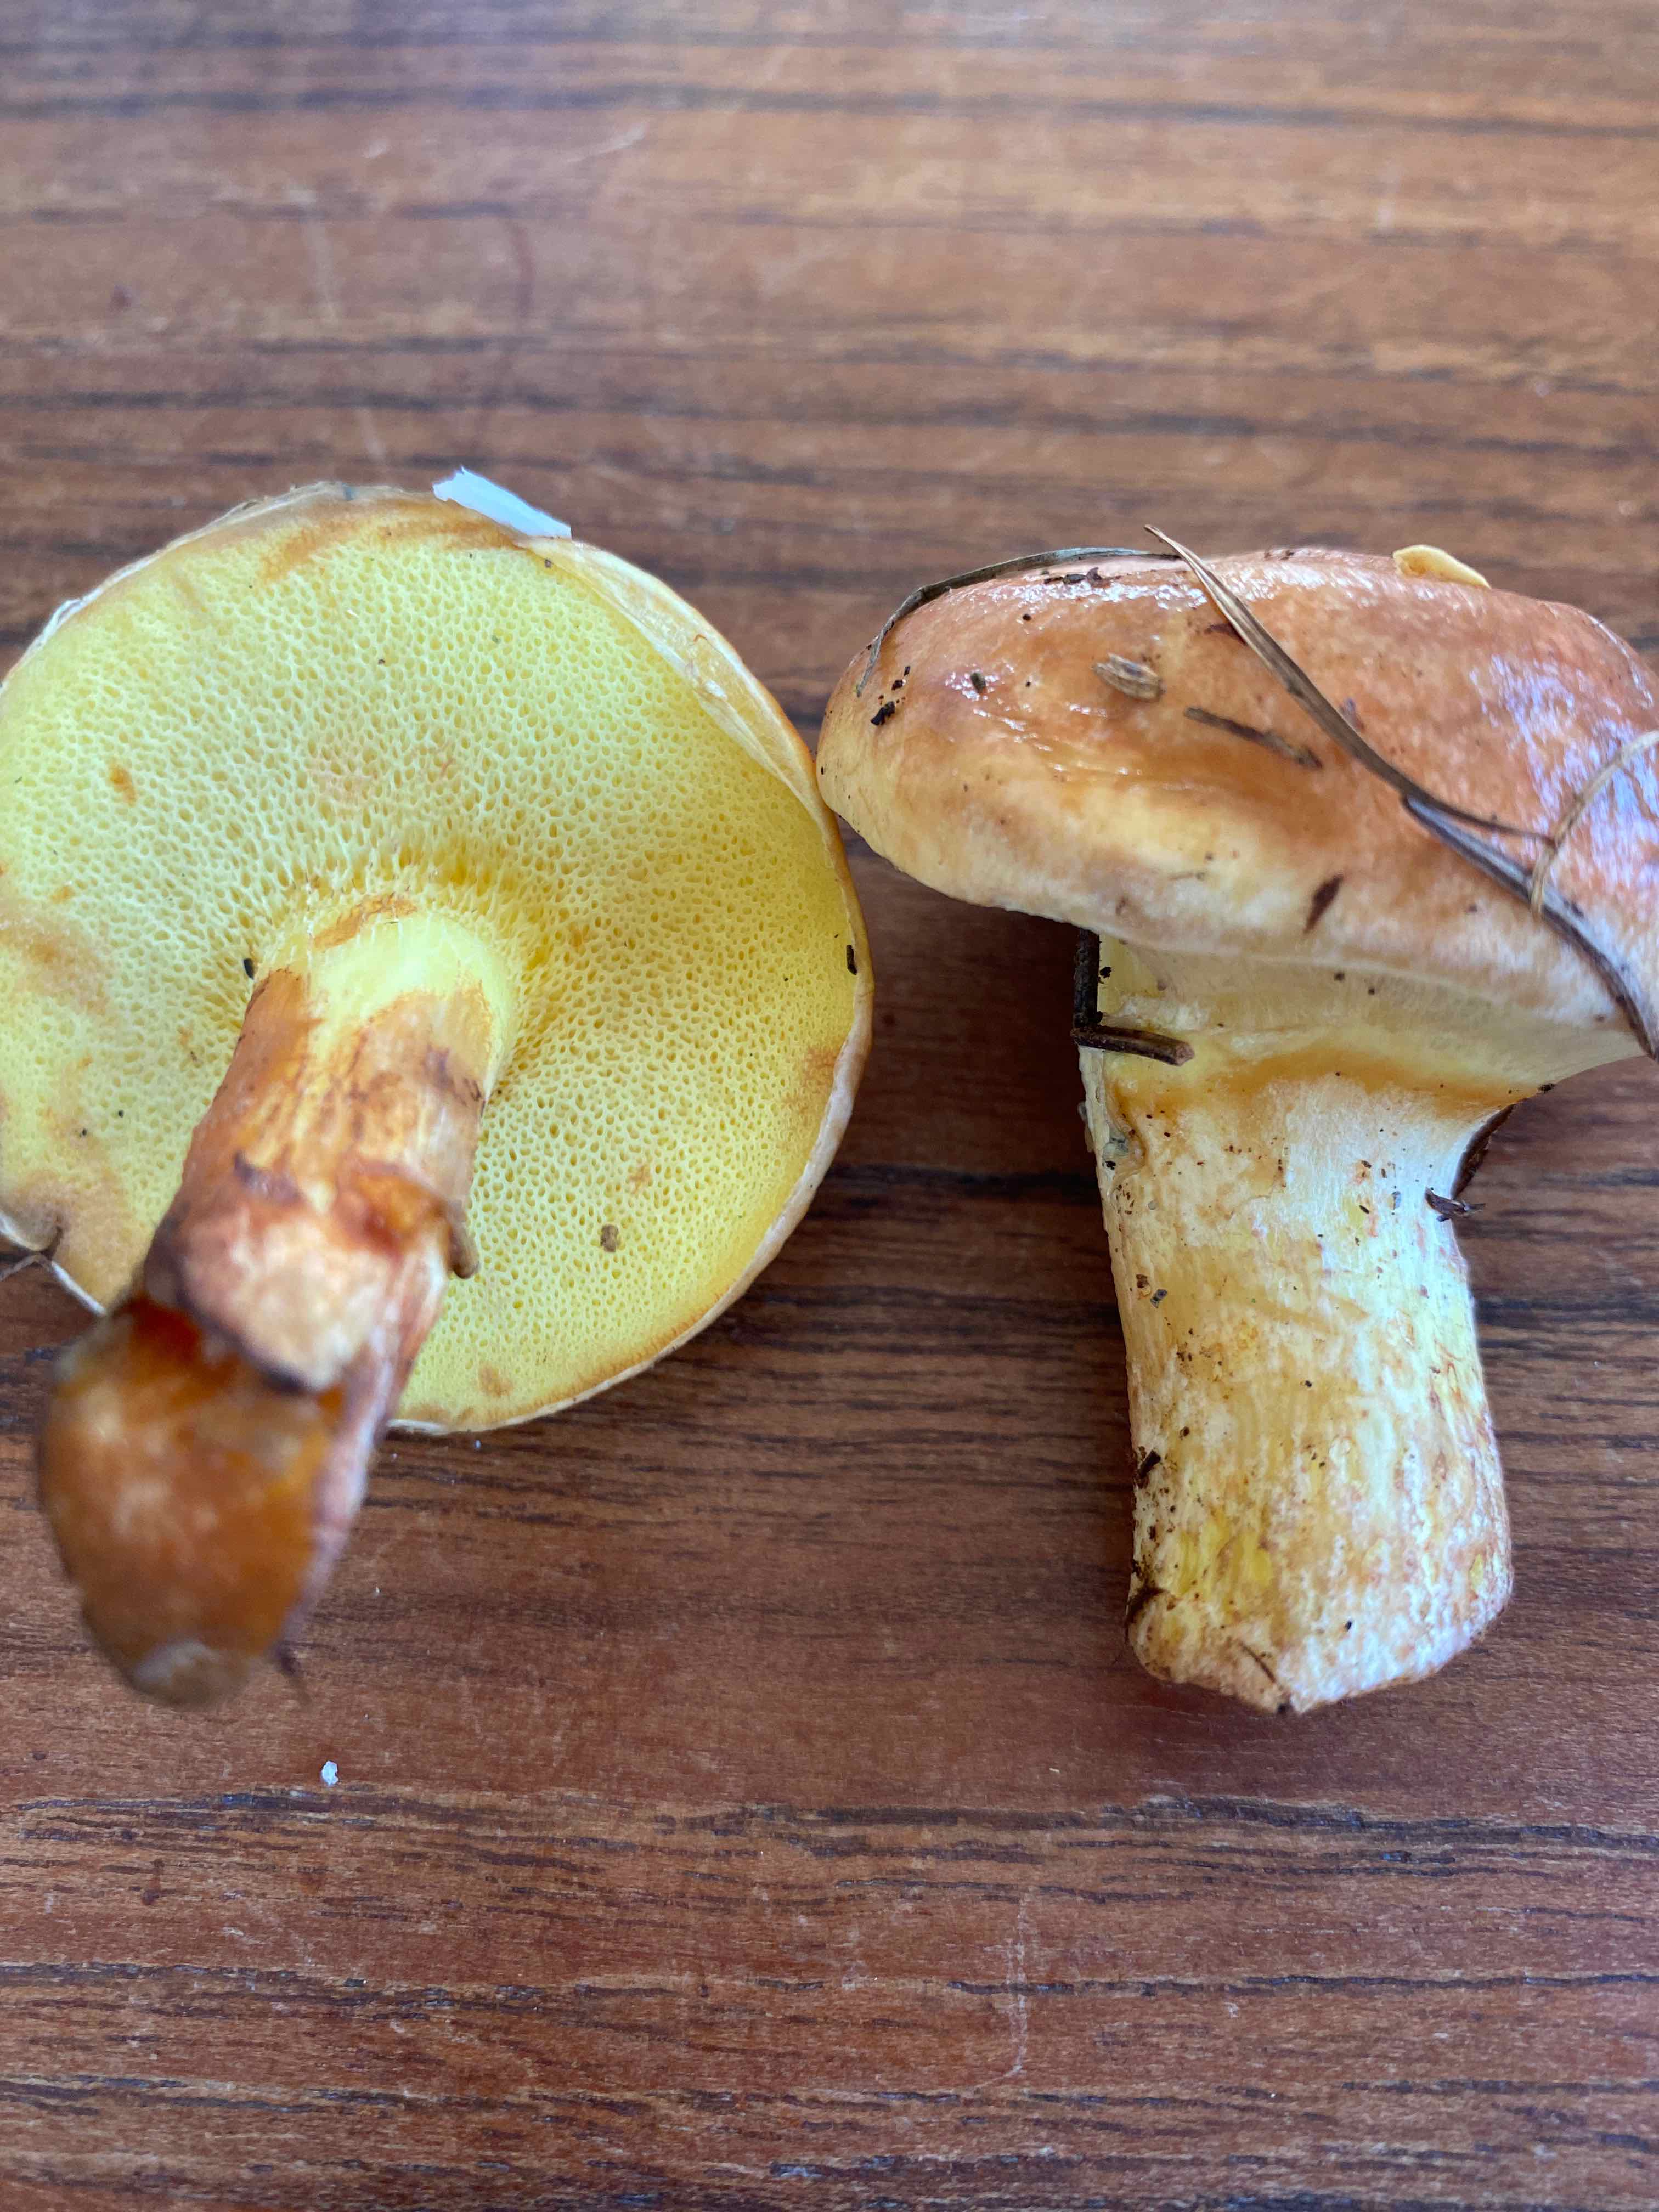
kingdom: Fungi
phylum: Basidiomycota
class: Agaricomycetes
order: Boletales
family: Suillaceae
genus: Suillus
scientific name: Suillus grevillei
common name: lærke-slimrørhat
